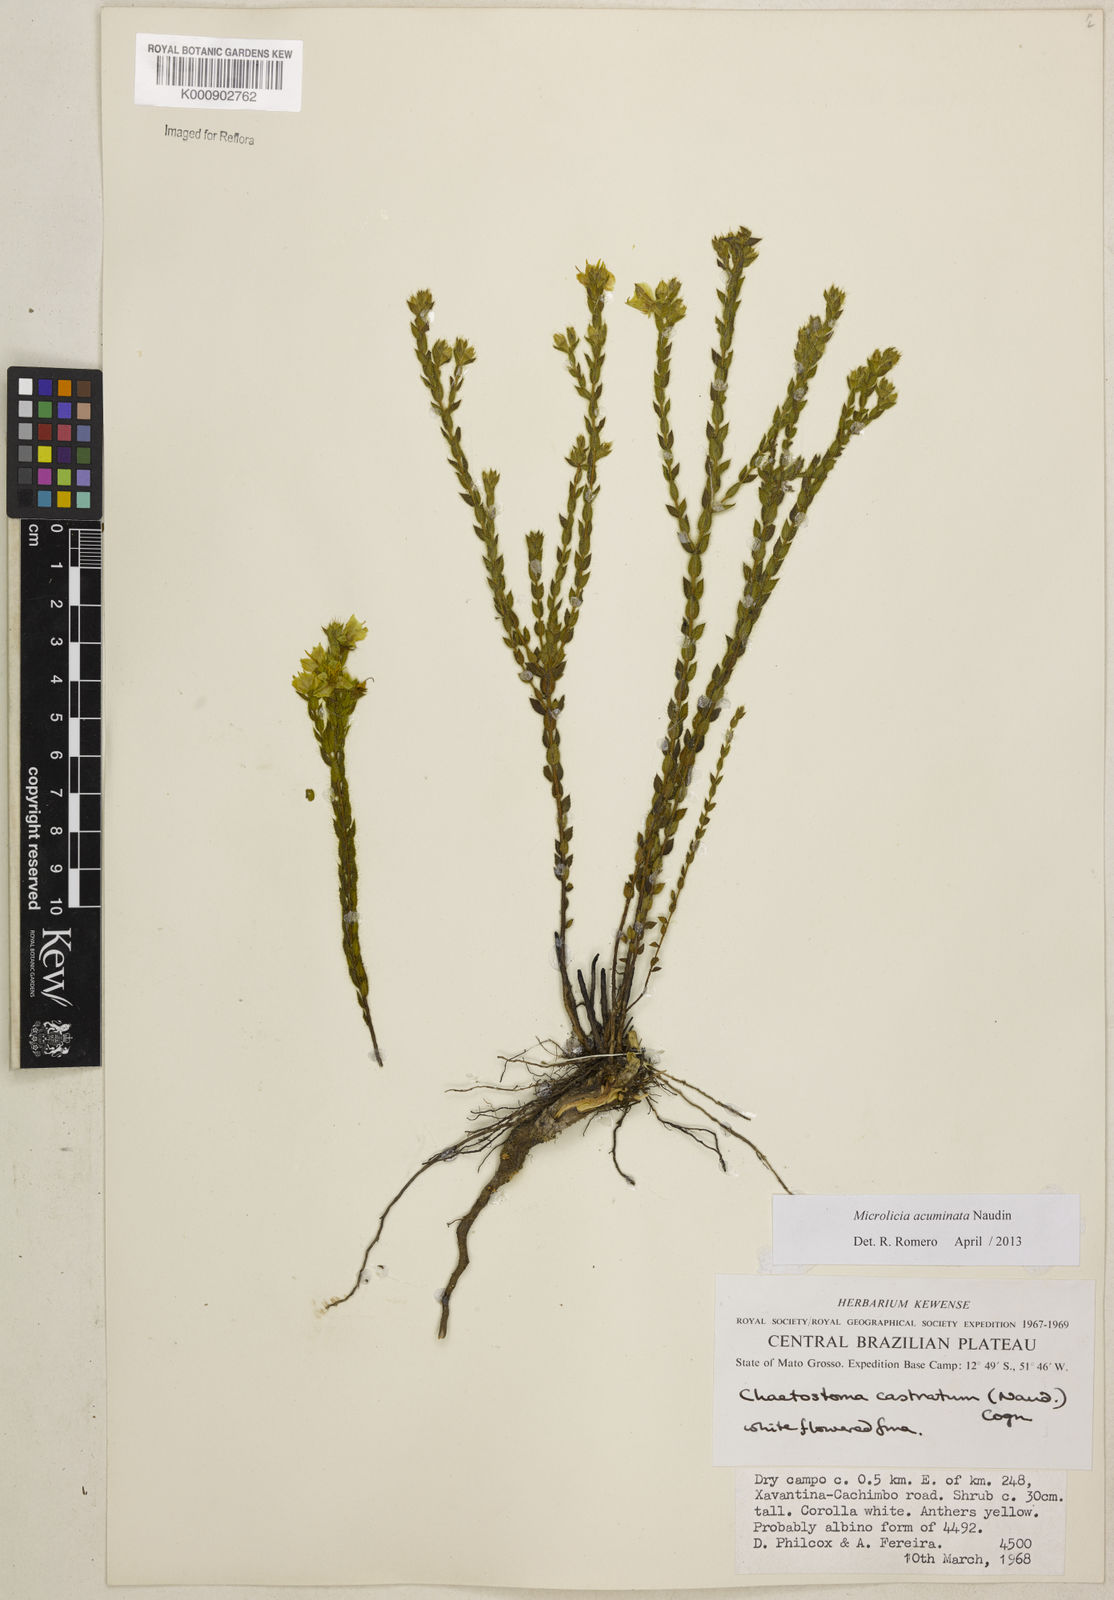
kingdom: Plantae
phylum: Tracheophyta
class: Magnoliopsida
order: Myrtales
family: Melastomataceae
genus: Microlicia
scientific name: Microlicia
